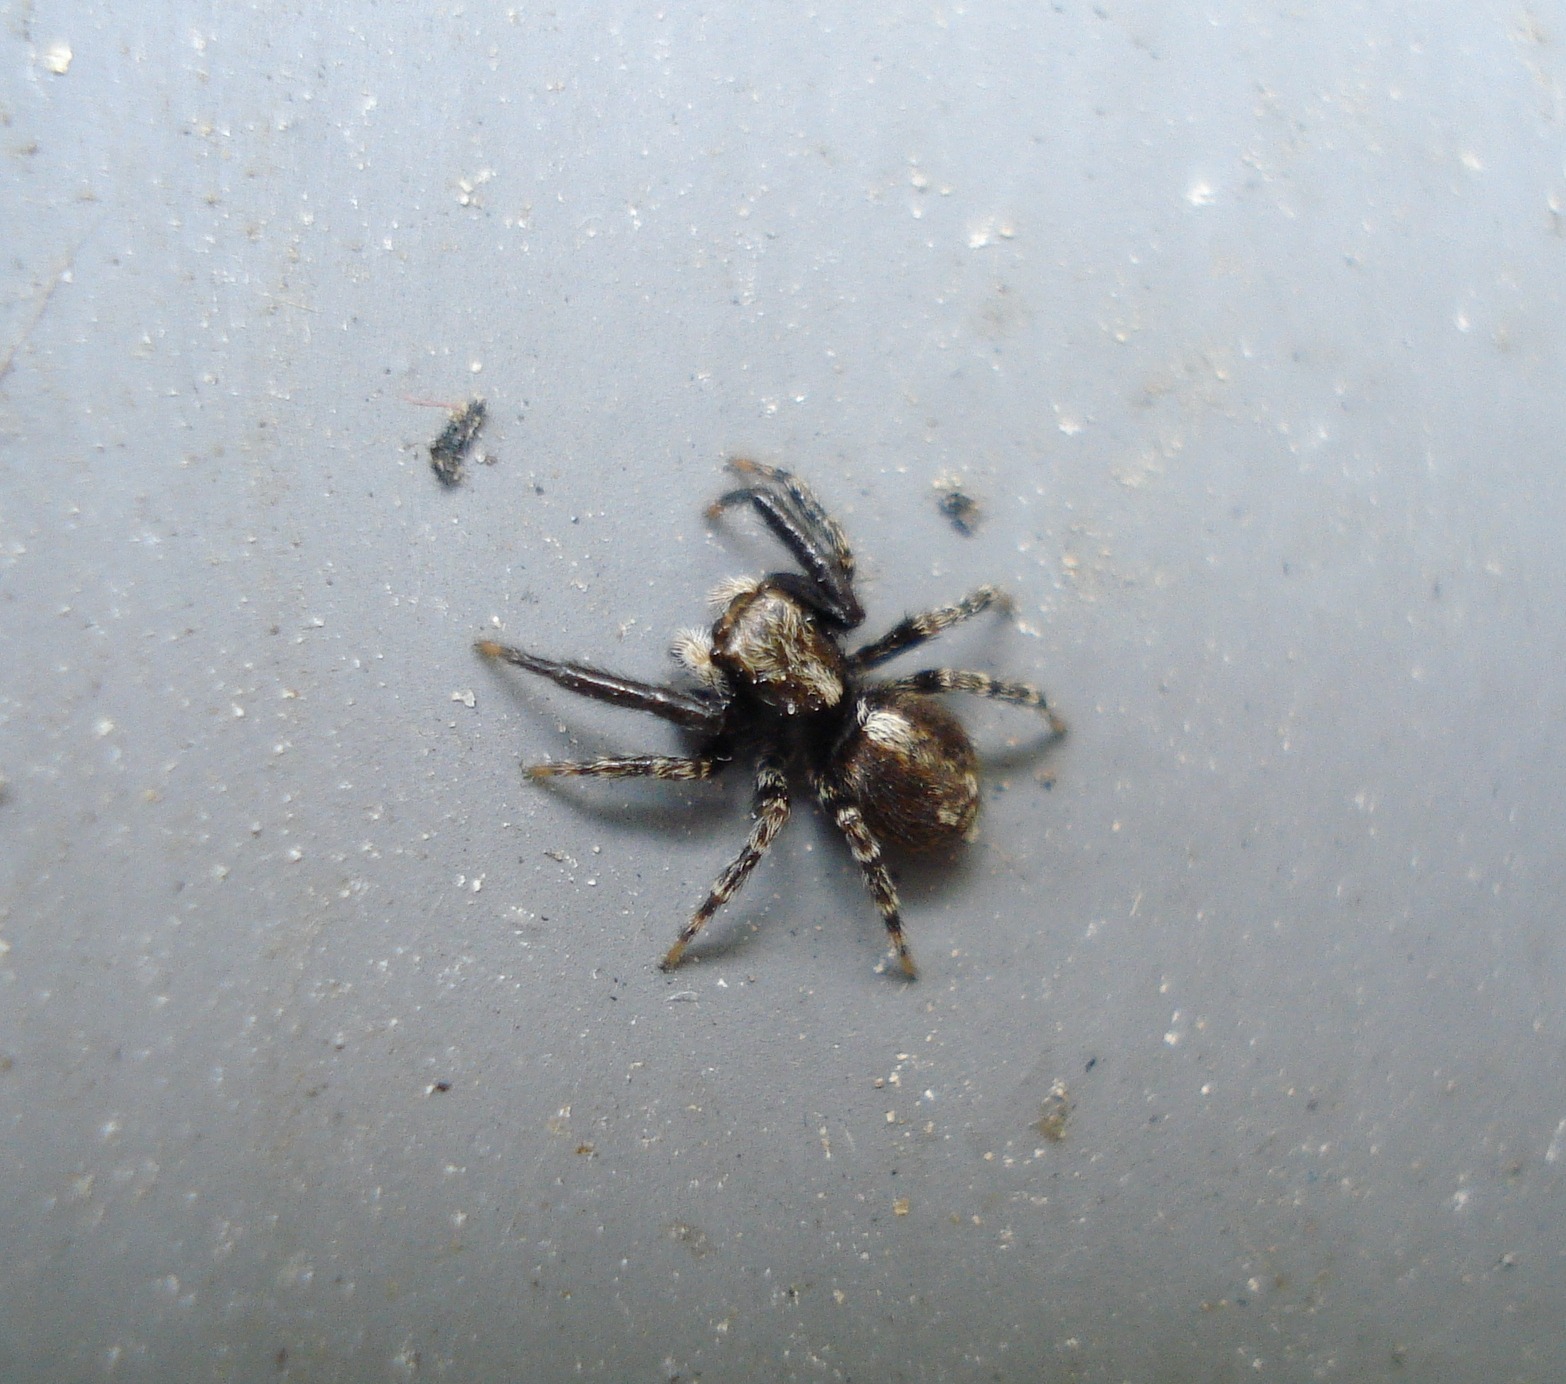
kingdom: Animalia
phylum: Arthropoda
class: Arachnida
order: Araneae
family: Salticidae
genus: Pseudeuophrys
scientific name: Pseudeuophrys lanigera
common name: Vinduesspringer
